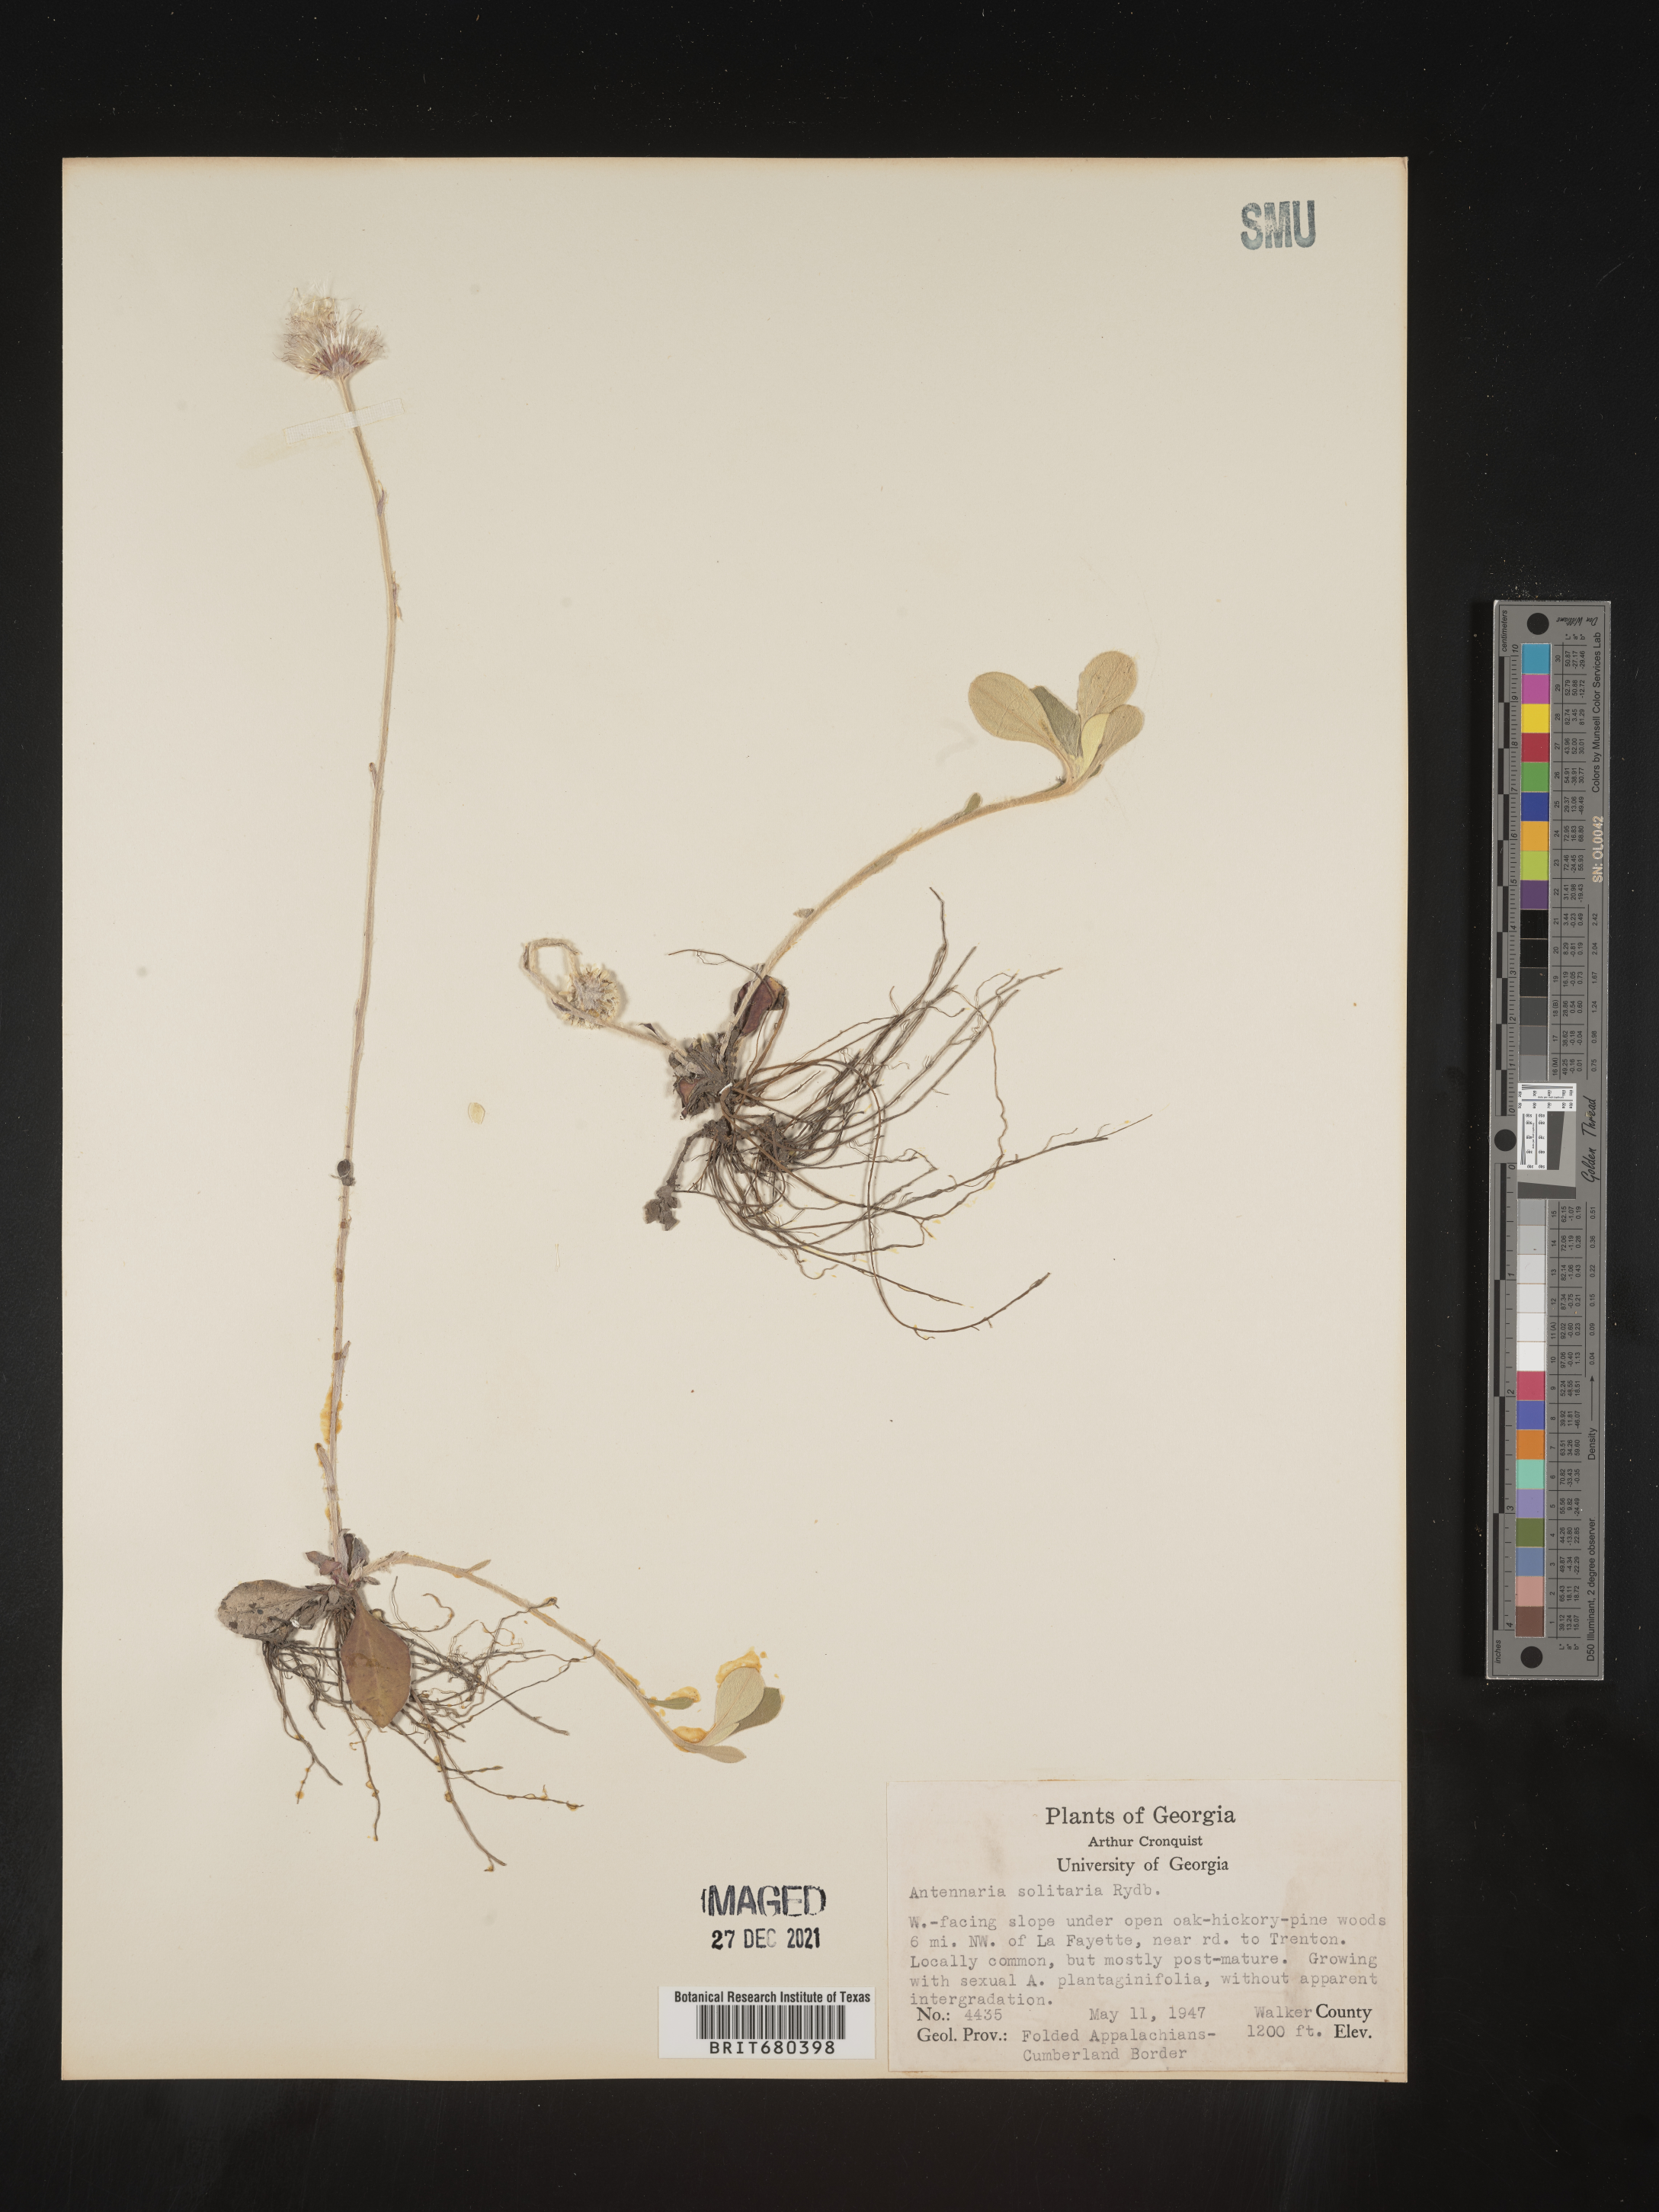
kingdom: Plantae
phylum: Tracheophyta
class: Magnoliopsida
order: Asterales
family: Asteraceae
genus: Antennaria
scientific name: Antennaria solitaria
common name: Single-head pussytoes
